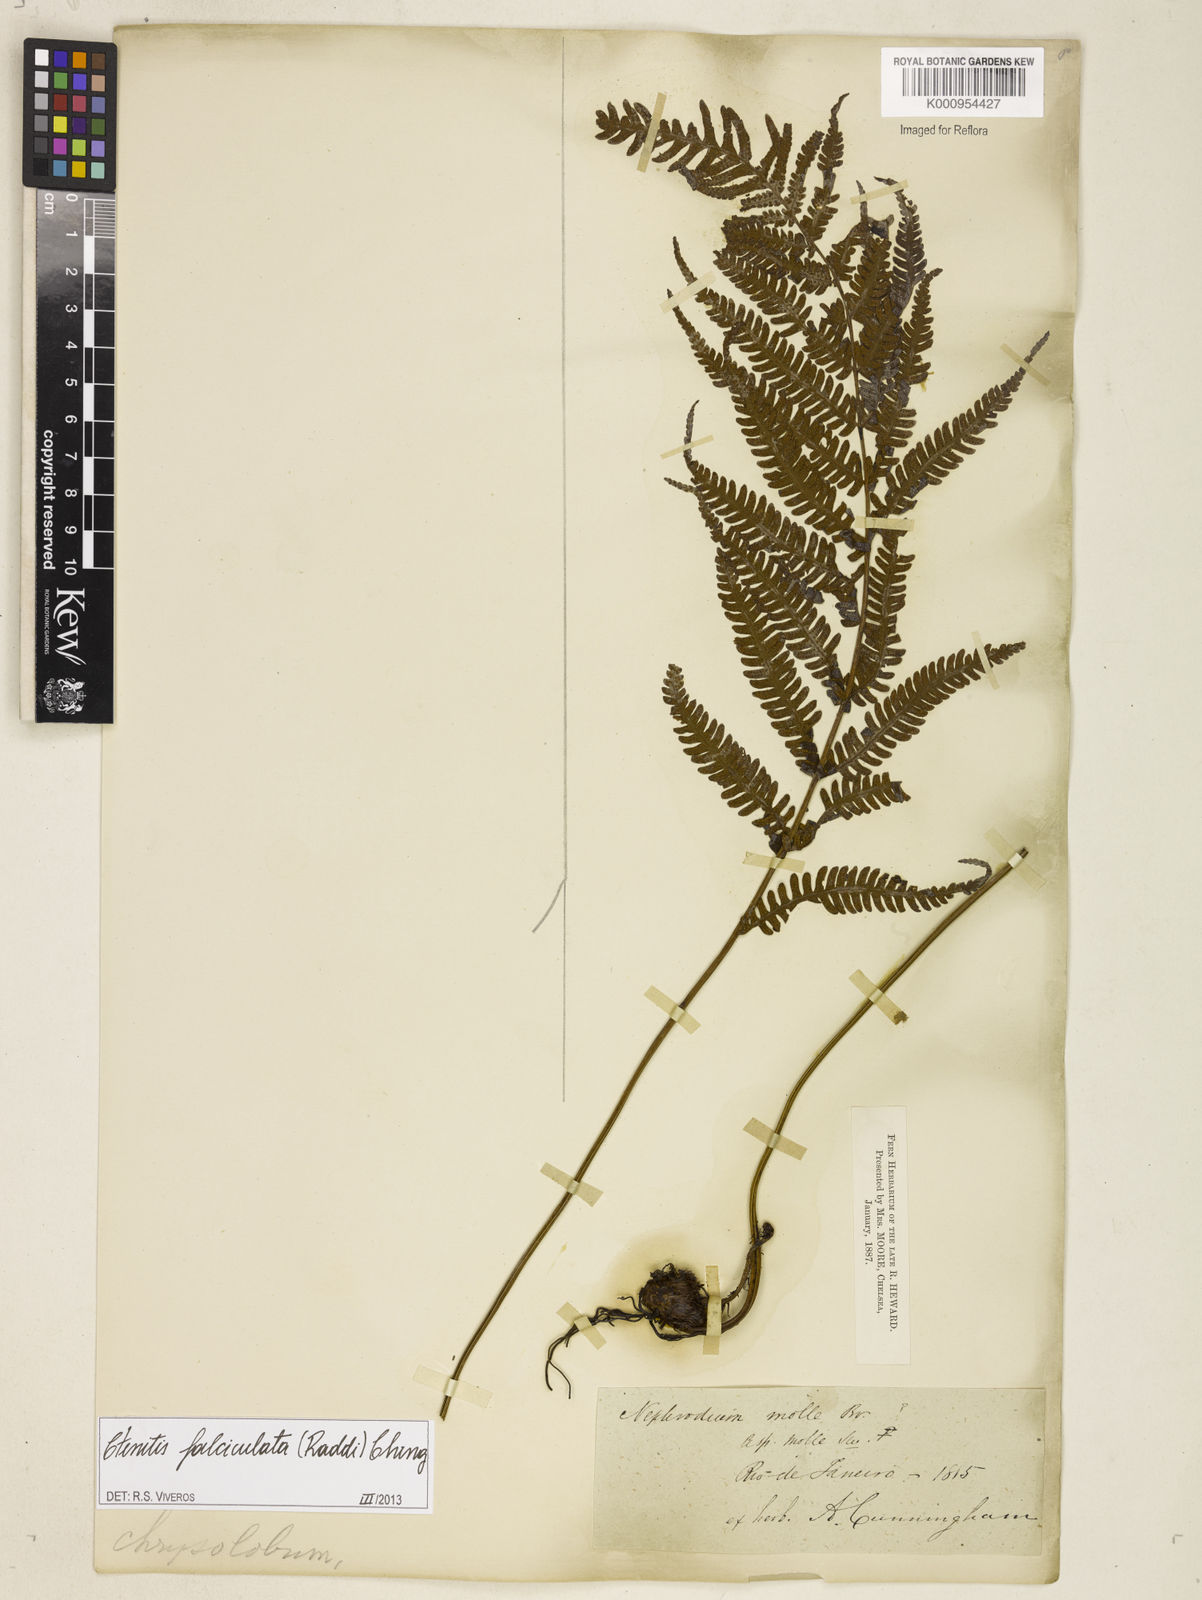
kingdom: Plantae
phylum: Tracheophyta
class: Polypodiopsida
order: Polypodiales
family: Dryopteridaceae
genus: Ctenitis
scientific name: Ctenitis falciculata
